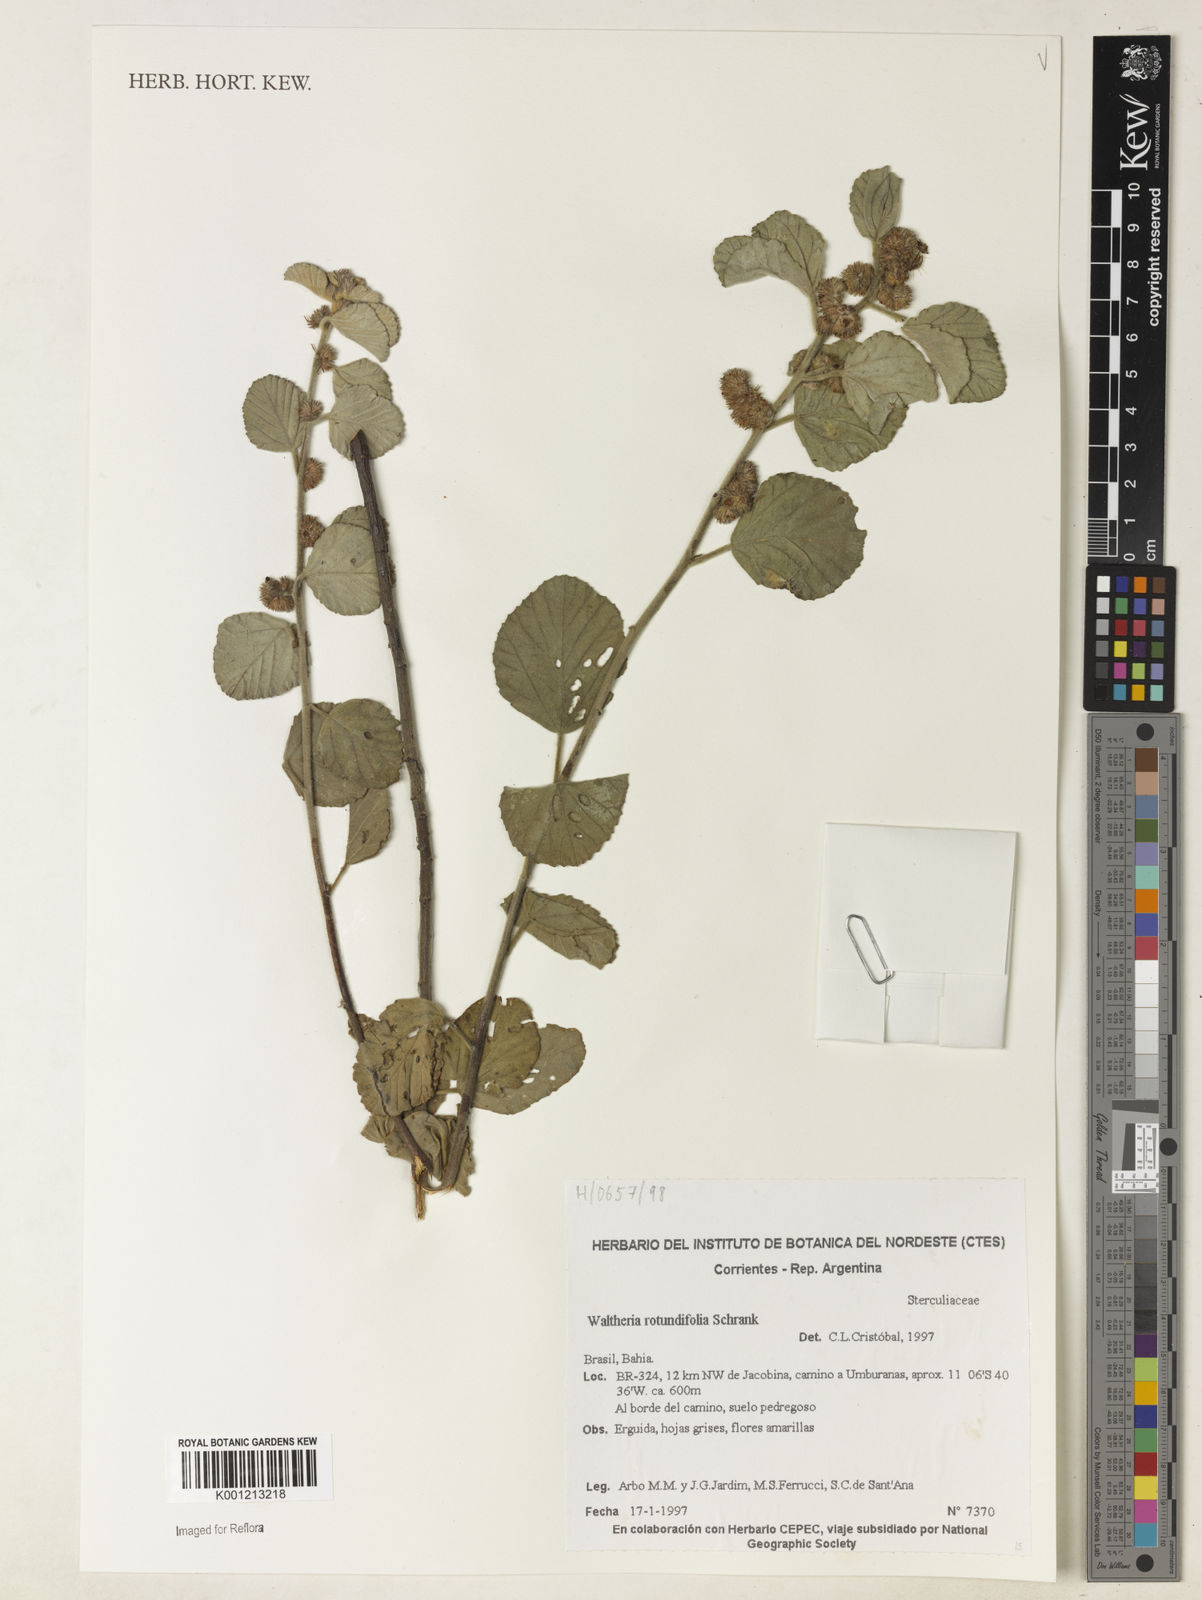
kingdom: Plantae
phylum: Tracheophyta
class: Magnoliopsida
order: Malvales
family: Malvaceae
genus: Waltheria
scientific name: Waltheria rotundifolia
